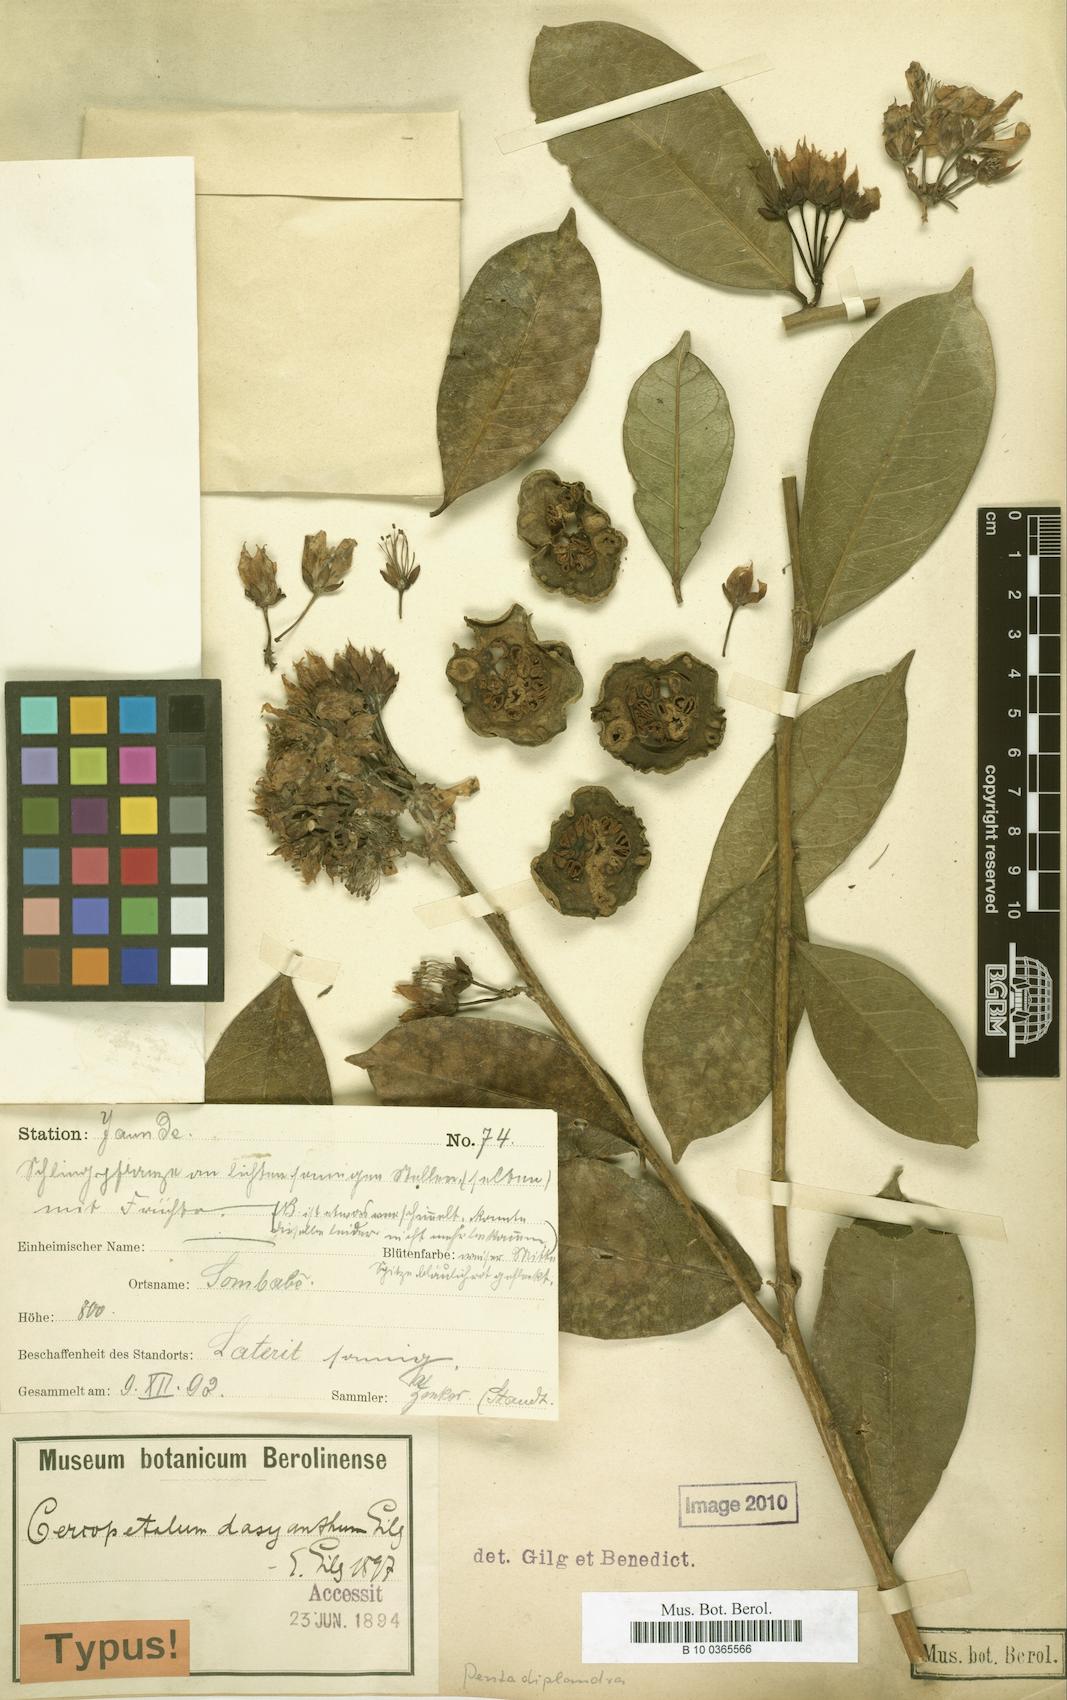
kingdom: Plantae
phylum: Tracheophyta
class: Magnoliopsida
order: Brassicales
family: Pentadiplandraceae
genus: Pentadiplandra
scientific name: Pentadiplandra brazzeana
